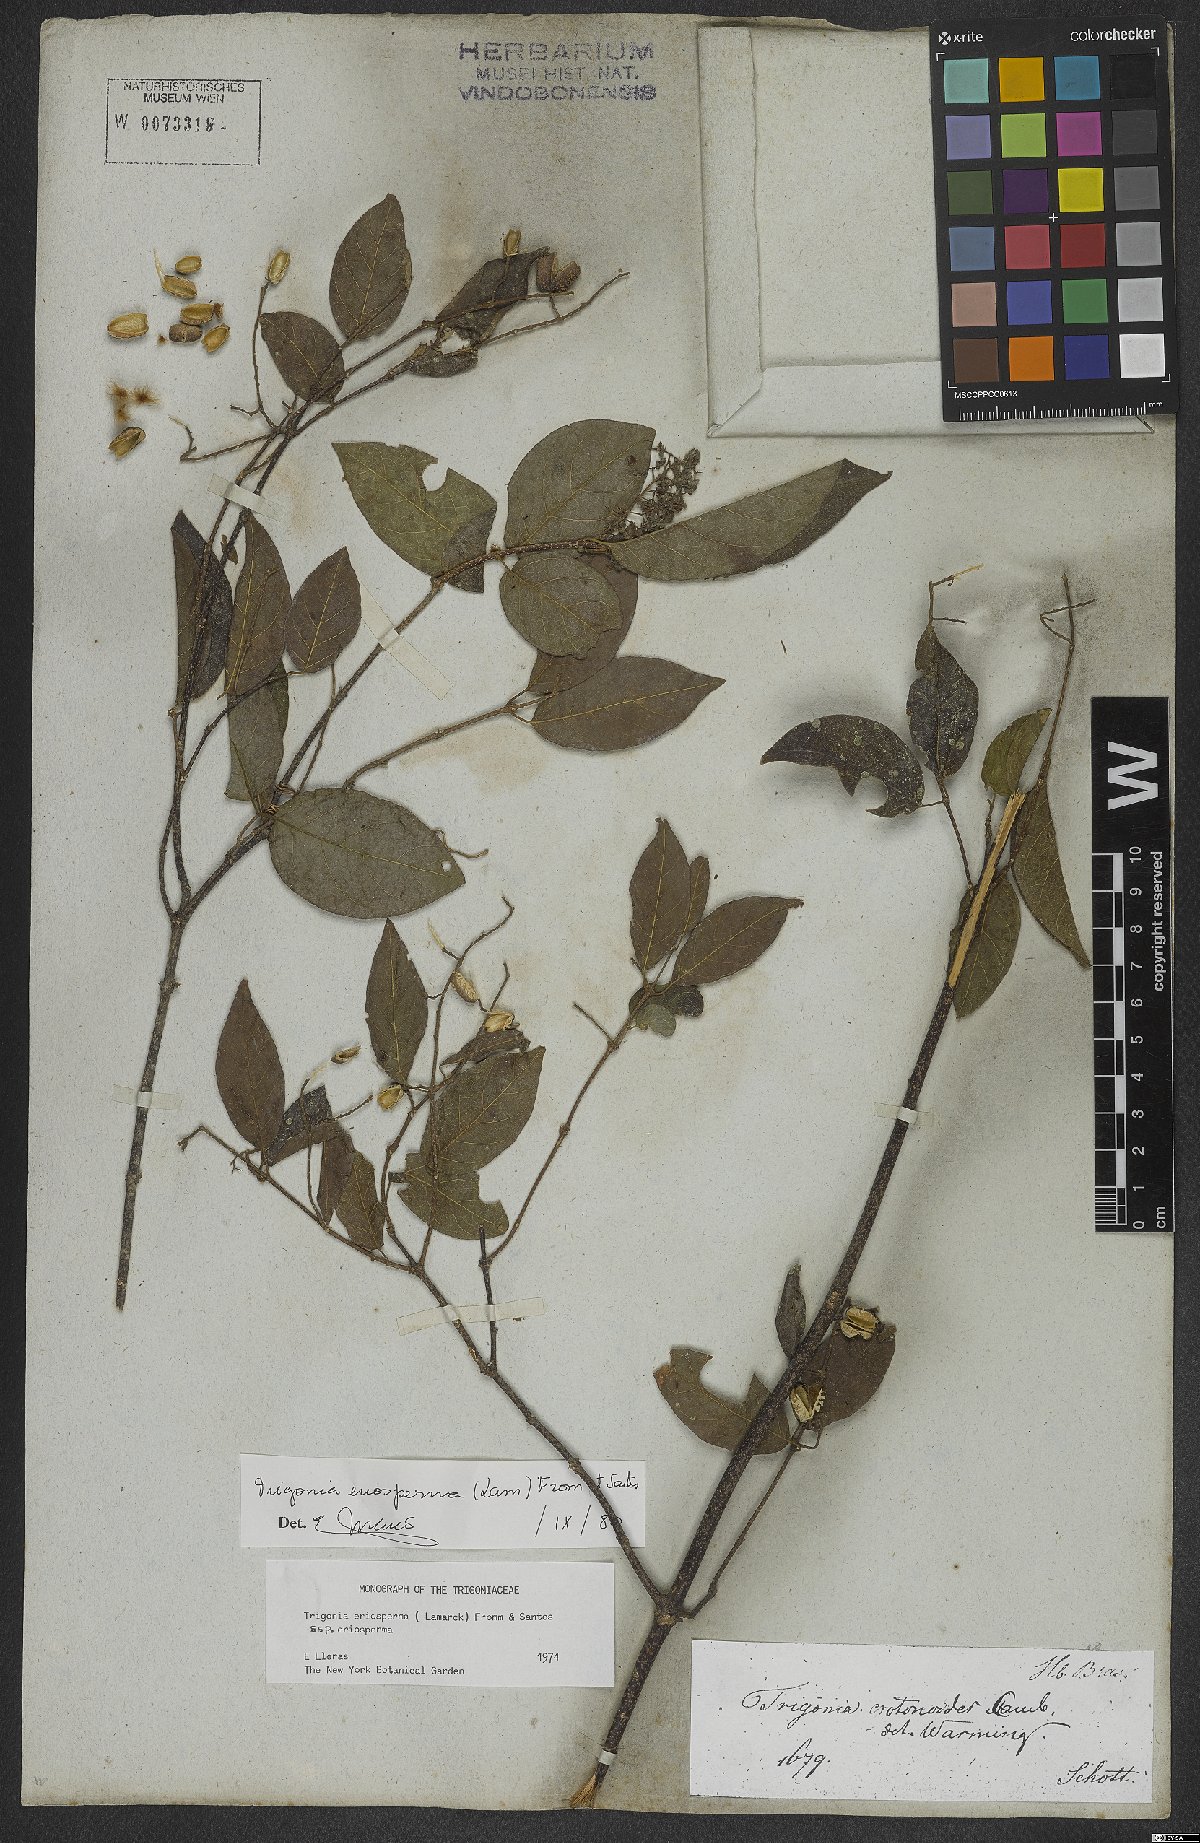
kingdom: Plantae
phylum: Tracheophyta
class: Magnoliopsida
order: Malpighiales
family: Trigoniaceae
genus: Trigonia
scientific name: Trigonia eriosperma
